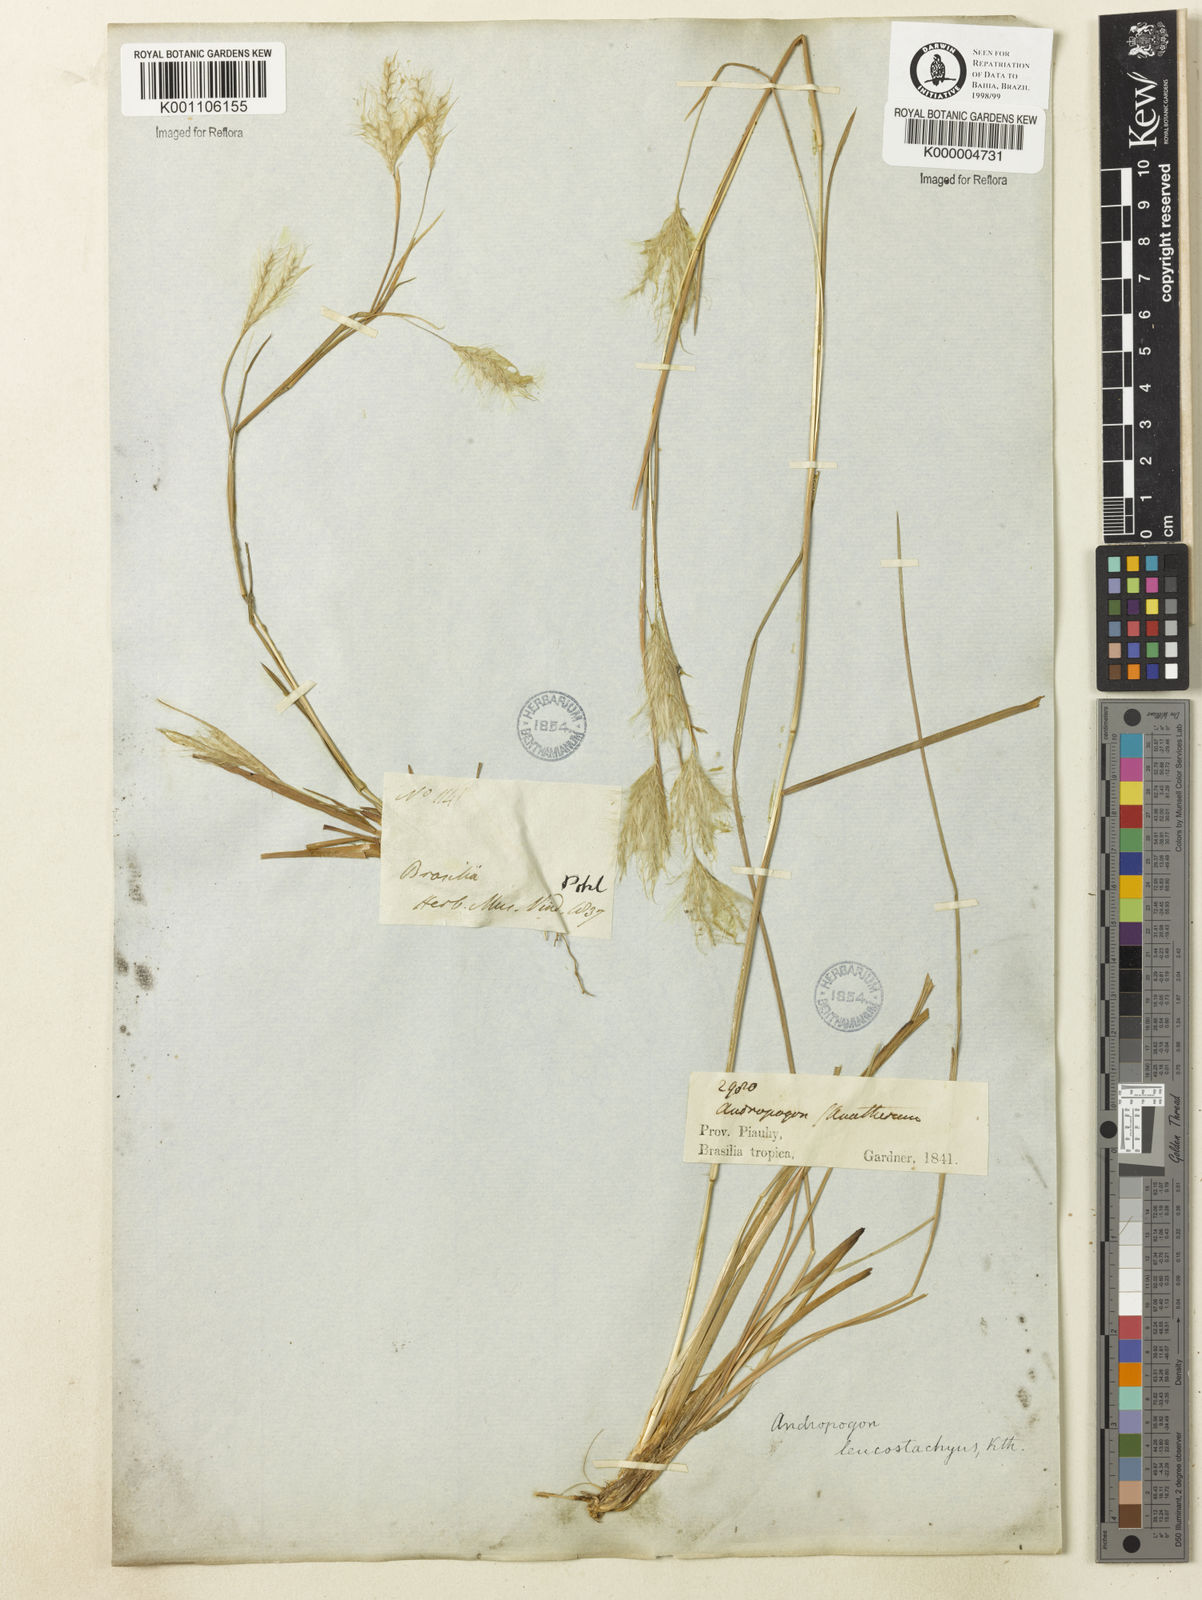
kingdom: Plantae
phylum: Tracheophyta
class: Liliopsida
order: Poales
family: Poaceae
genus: Andropogon
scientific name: Andropogon leucostachyus
